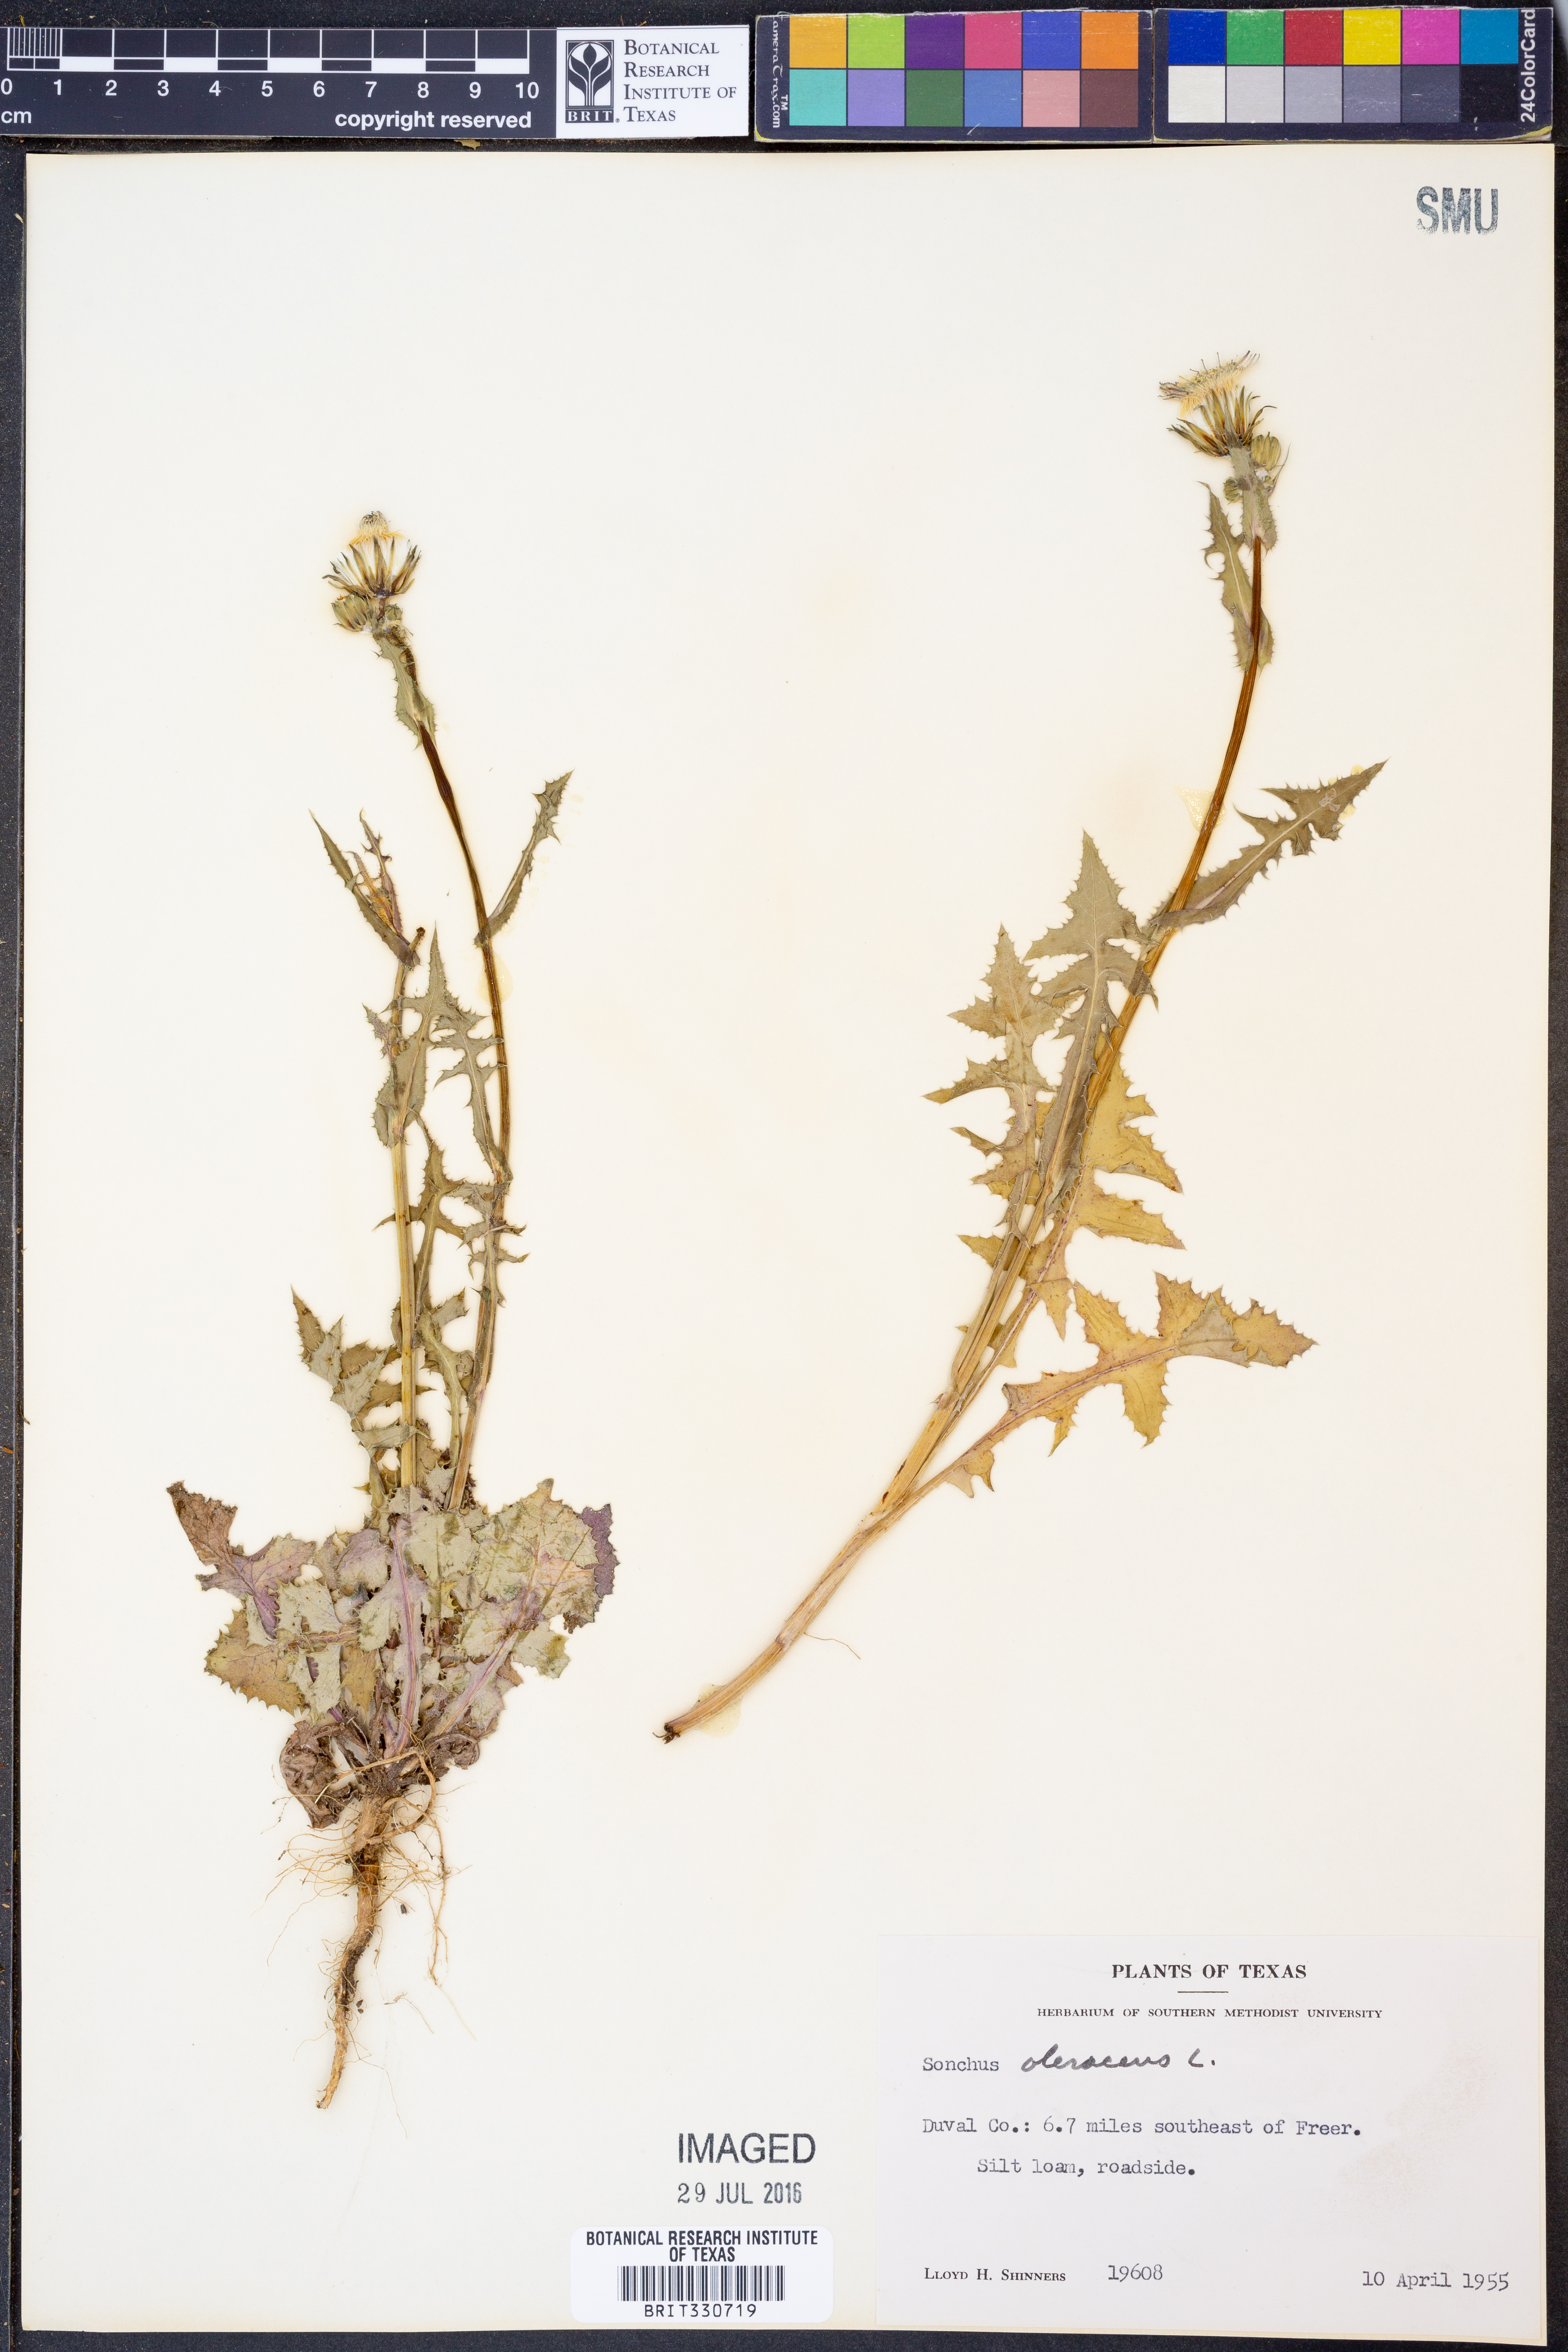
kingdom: Plantae
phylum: Tracheophyta
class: Magnoliopsida
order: Asterales
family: Asteraceae
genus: Sonchus
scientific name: Sonchus oleraceus
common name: Common sowthistle
